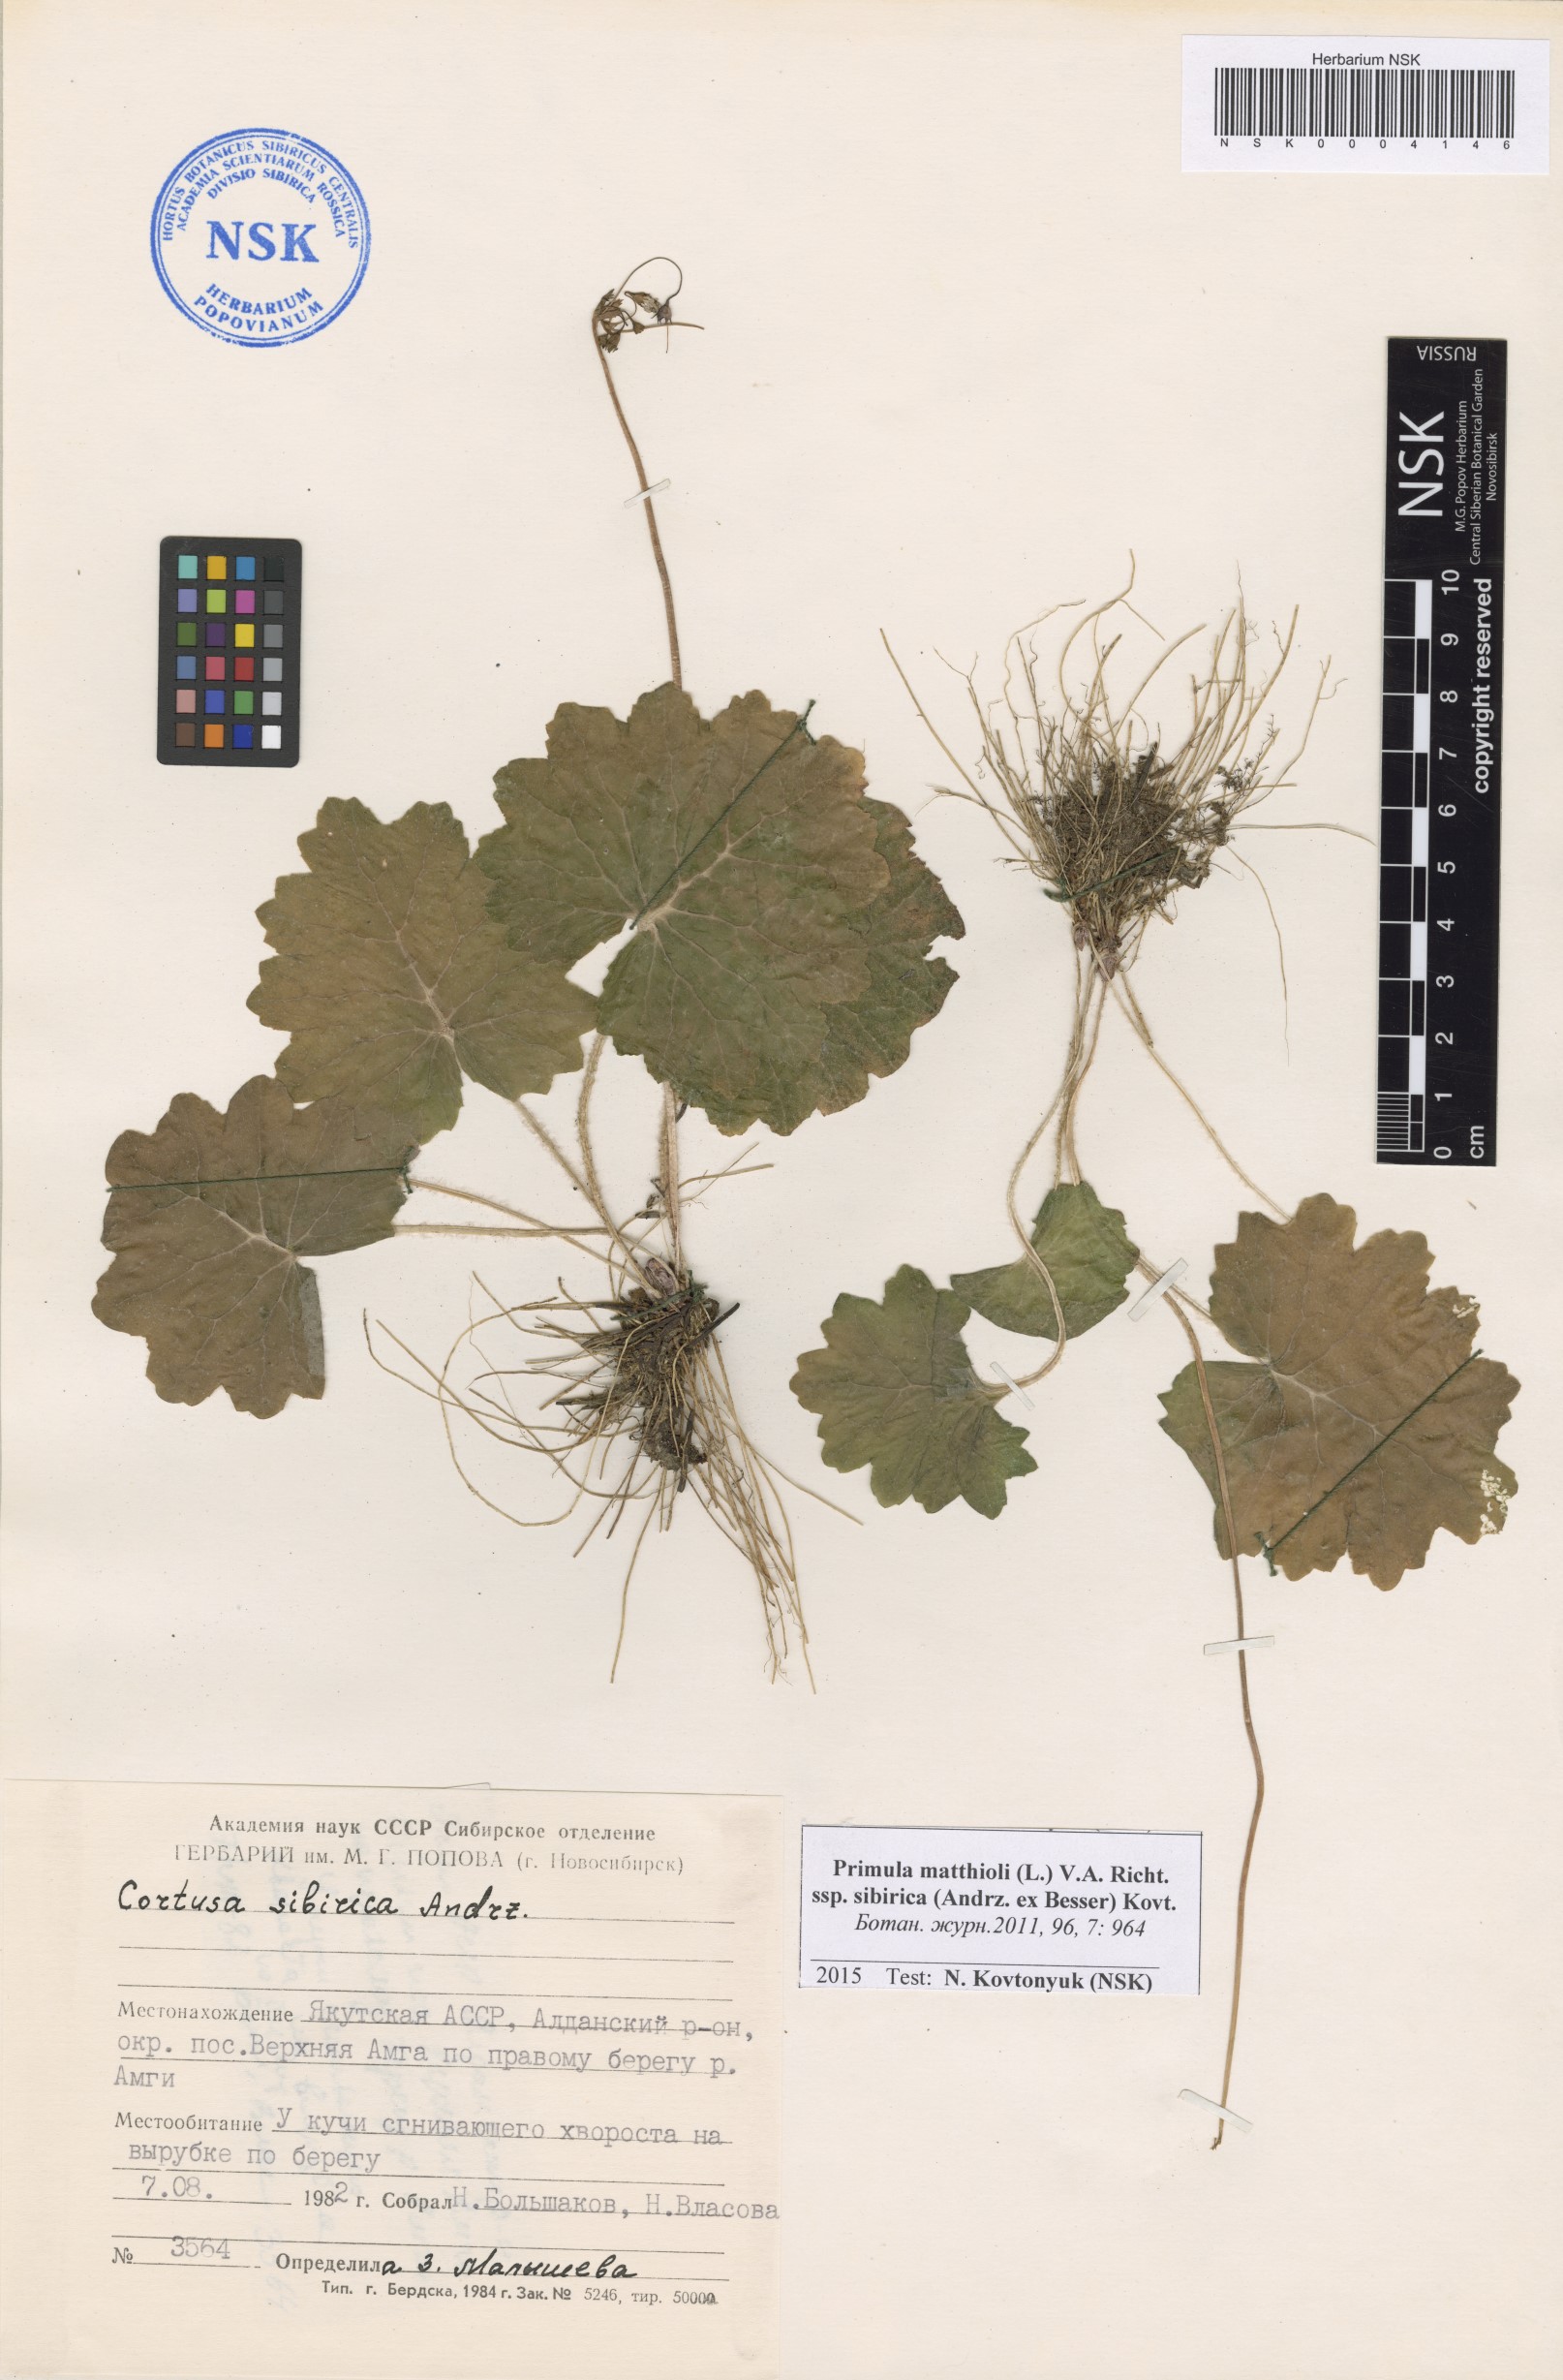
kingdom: Plantae
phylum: Tracheophyta
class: Magnoliopsida
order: Ericales
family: Primulaceae
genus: Primula
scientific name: Primula matthioli
